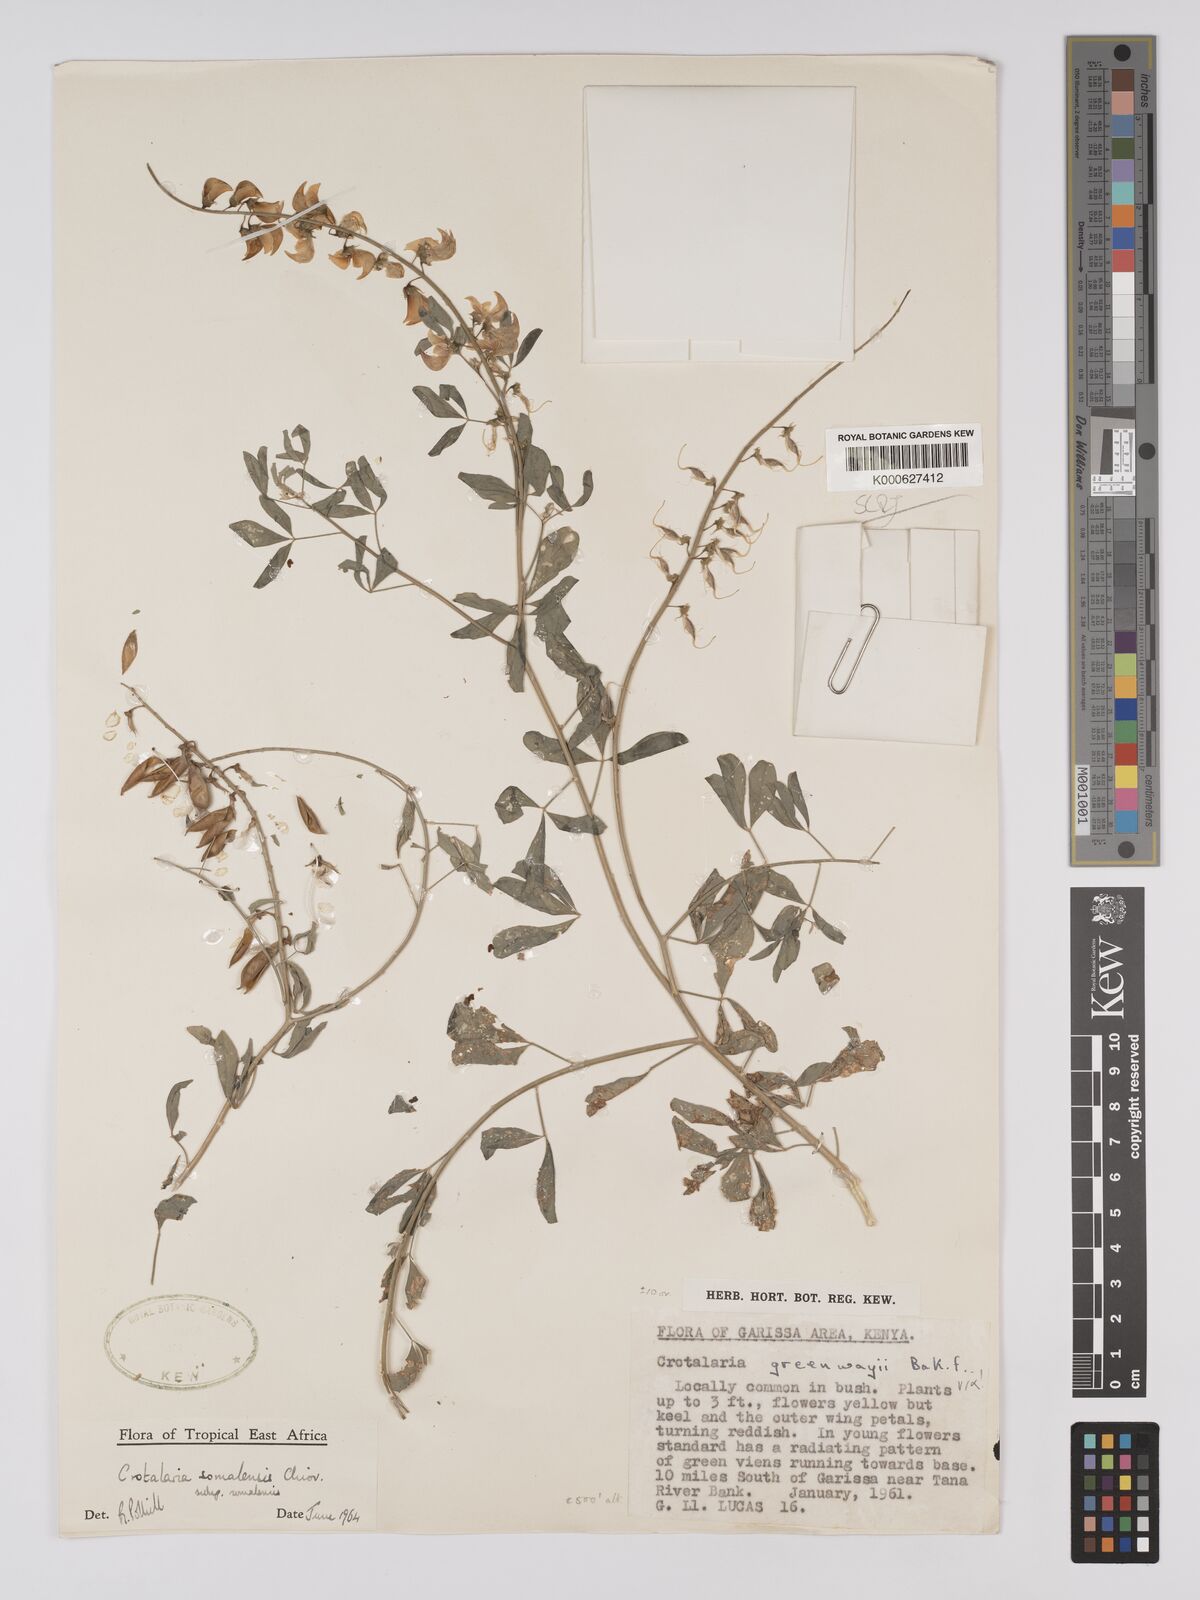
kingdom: Plantae
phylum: Tracheophyta
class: Magnoliopsida
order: Fabales
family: Fabaceae
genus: Crotalaria
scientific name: Crotalaria
